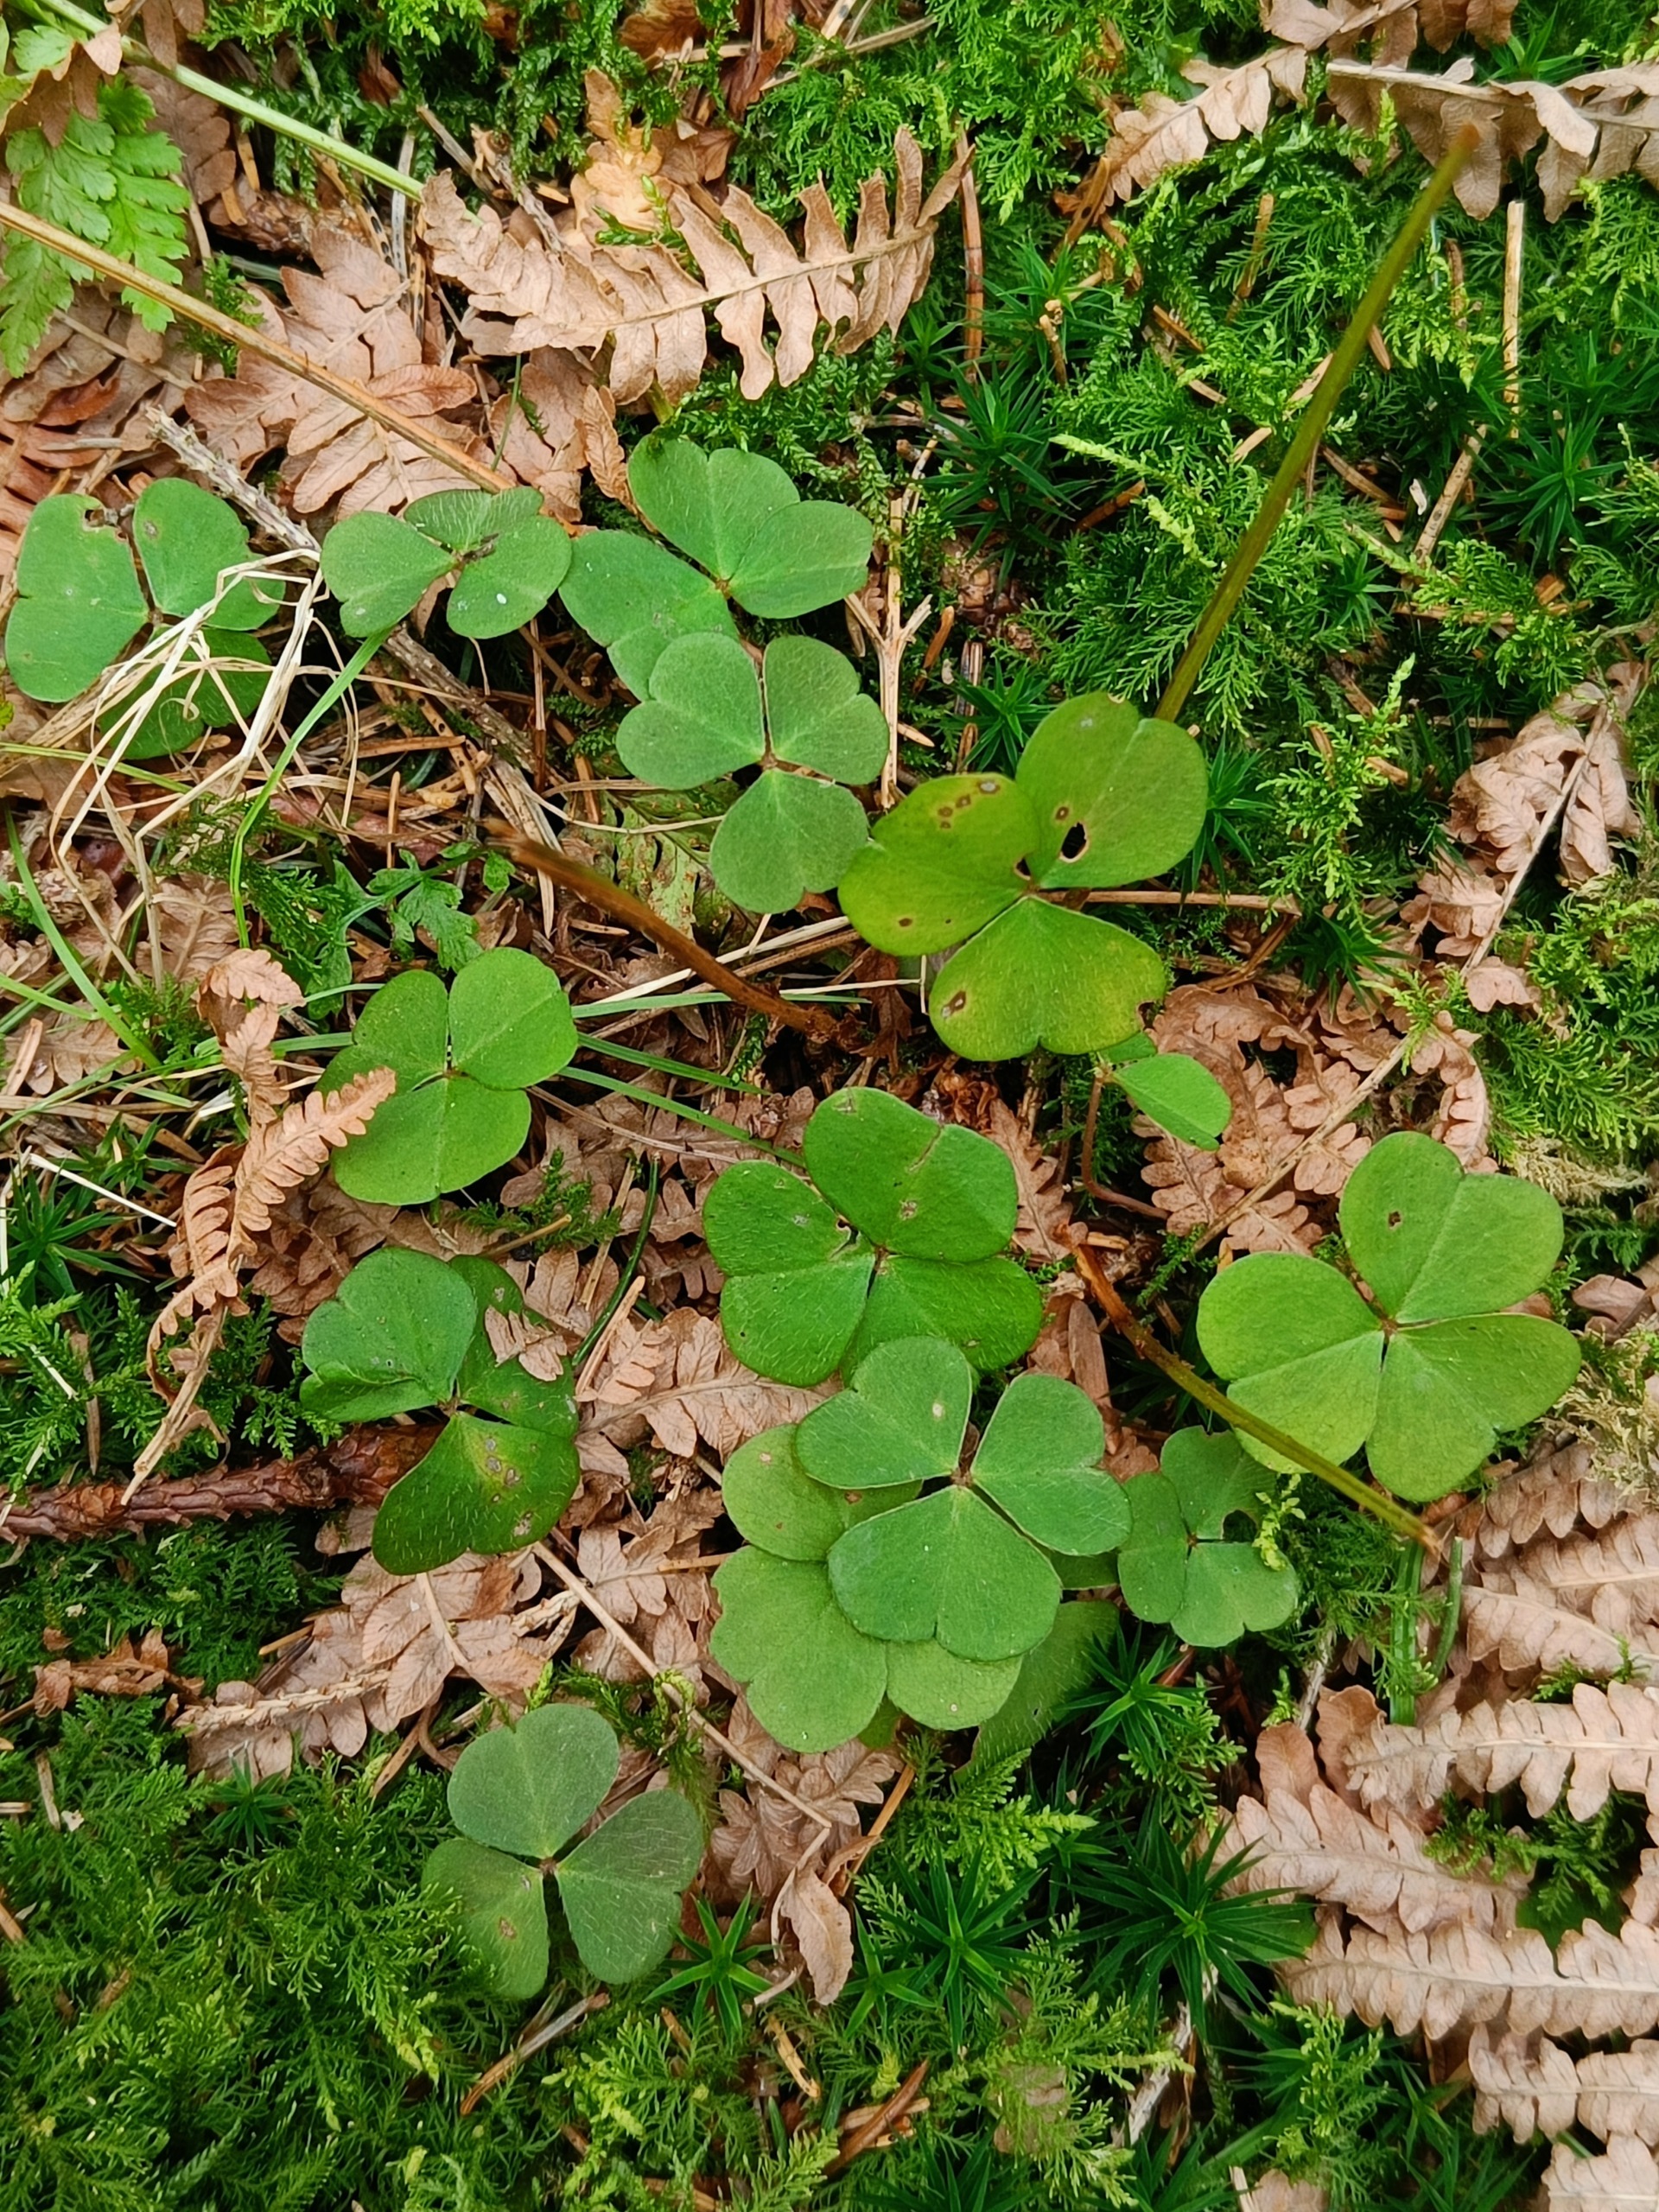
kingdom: Plantae
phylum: Tracheophyta
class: Magnoliopsida
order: Oxalidales
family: Oxalidaceae
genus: Oxalis
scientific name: Oxalis acetosella
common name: Skovsyre
